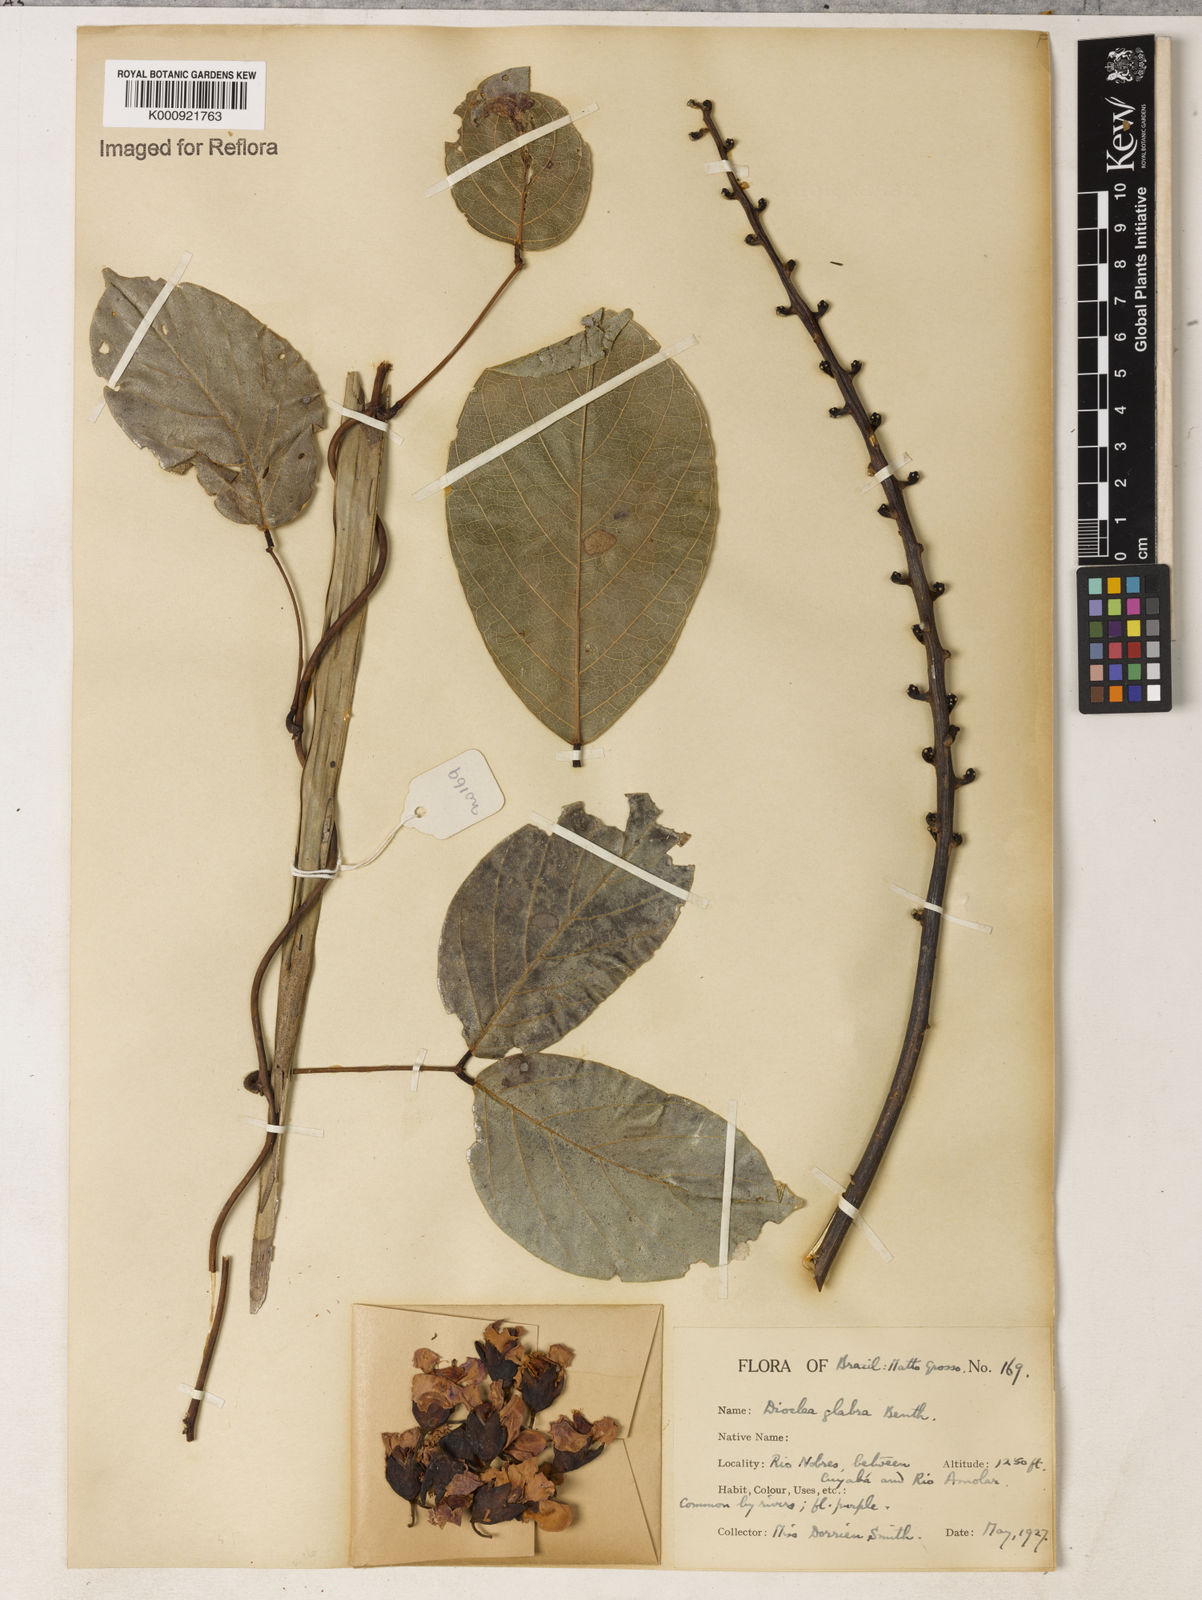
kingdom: Plantae
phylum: Tracheophyta
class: Magnoliopsida
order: Fabales
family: Fabaceae
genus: Macropsychanthus
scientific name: Macropsychanthus glaber
